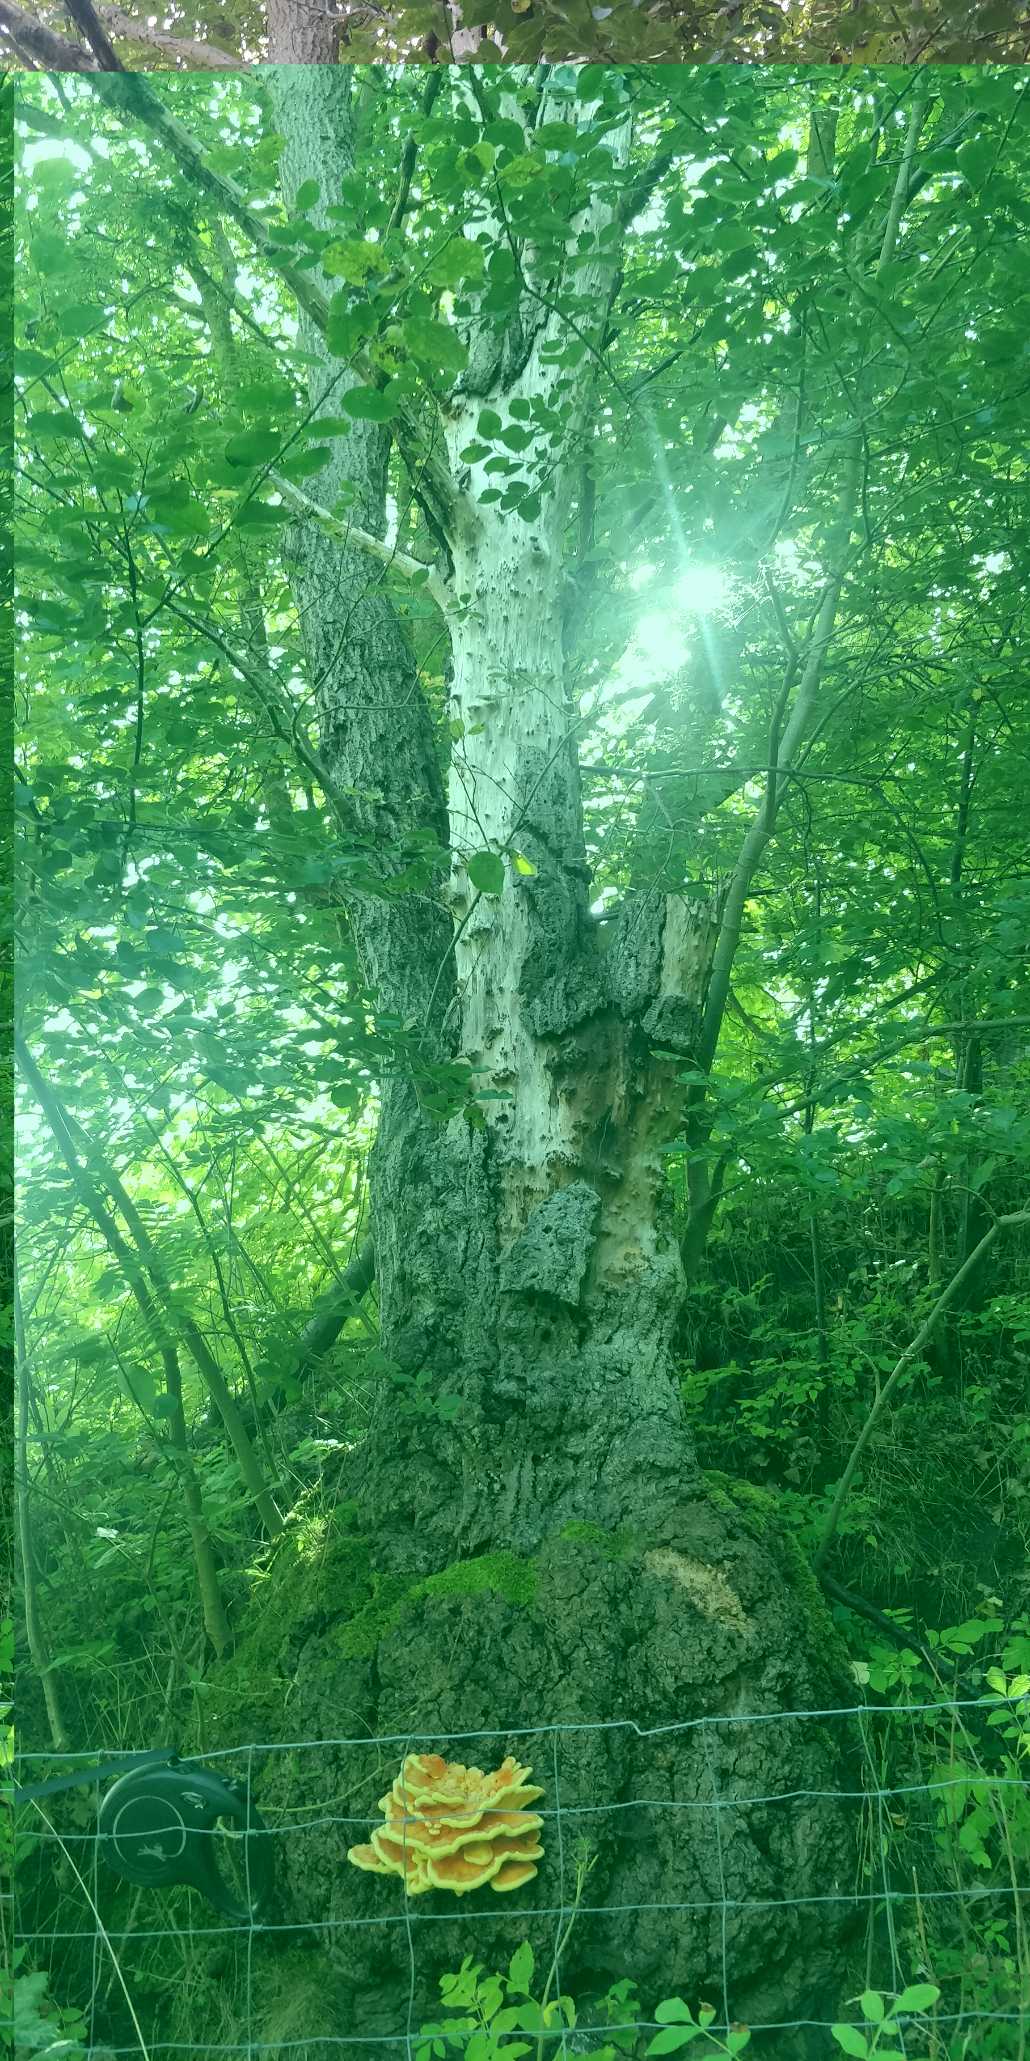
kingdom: Fungi
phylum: Basidiomycota
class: Agaricomycetes
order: Polyporales
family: Laetiporaceae
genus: Laetiporus
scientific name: Laetiporus sulphureus
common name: Svovlporesvamp
